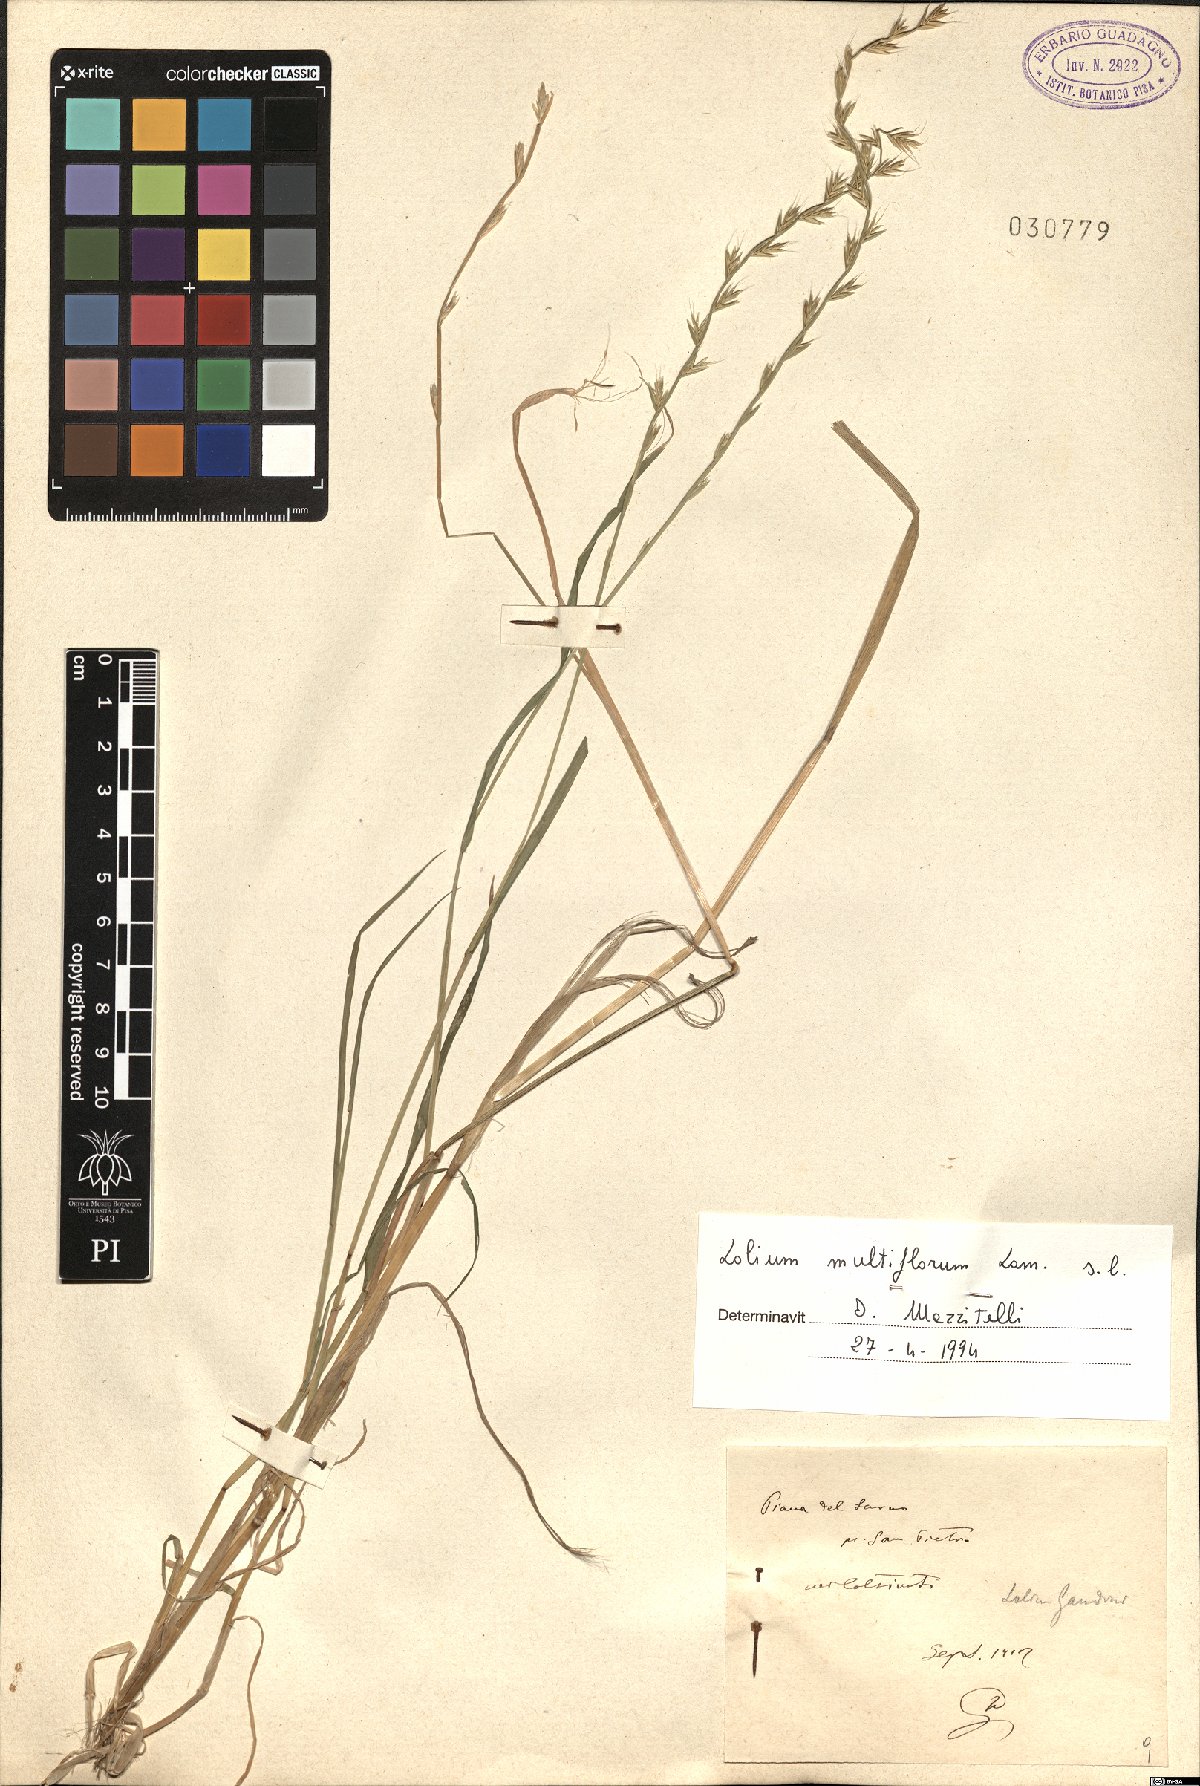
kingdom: Plantae
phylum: Tracheophyta
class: Liliopsida
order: Poales
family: Poaceae
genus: Lolium
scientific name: Lolium multiflorum
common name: Annual ryegrass
